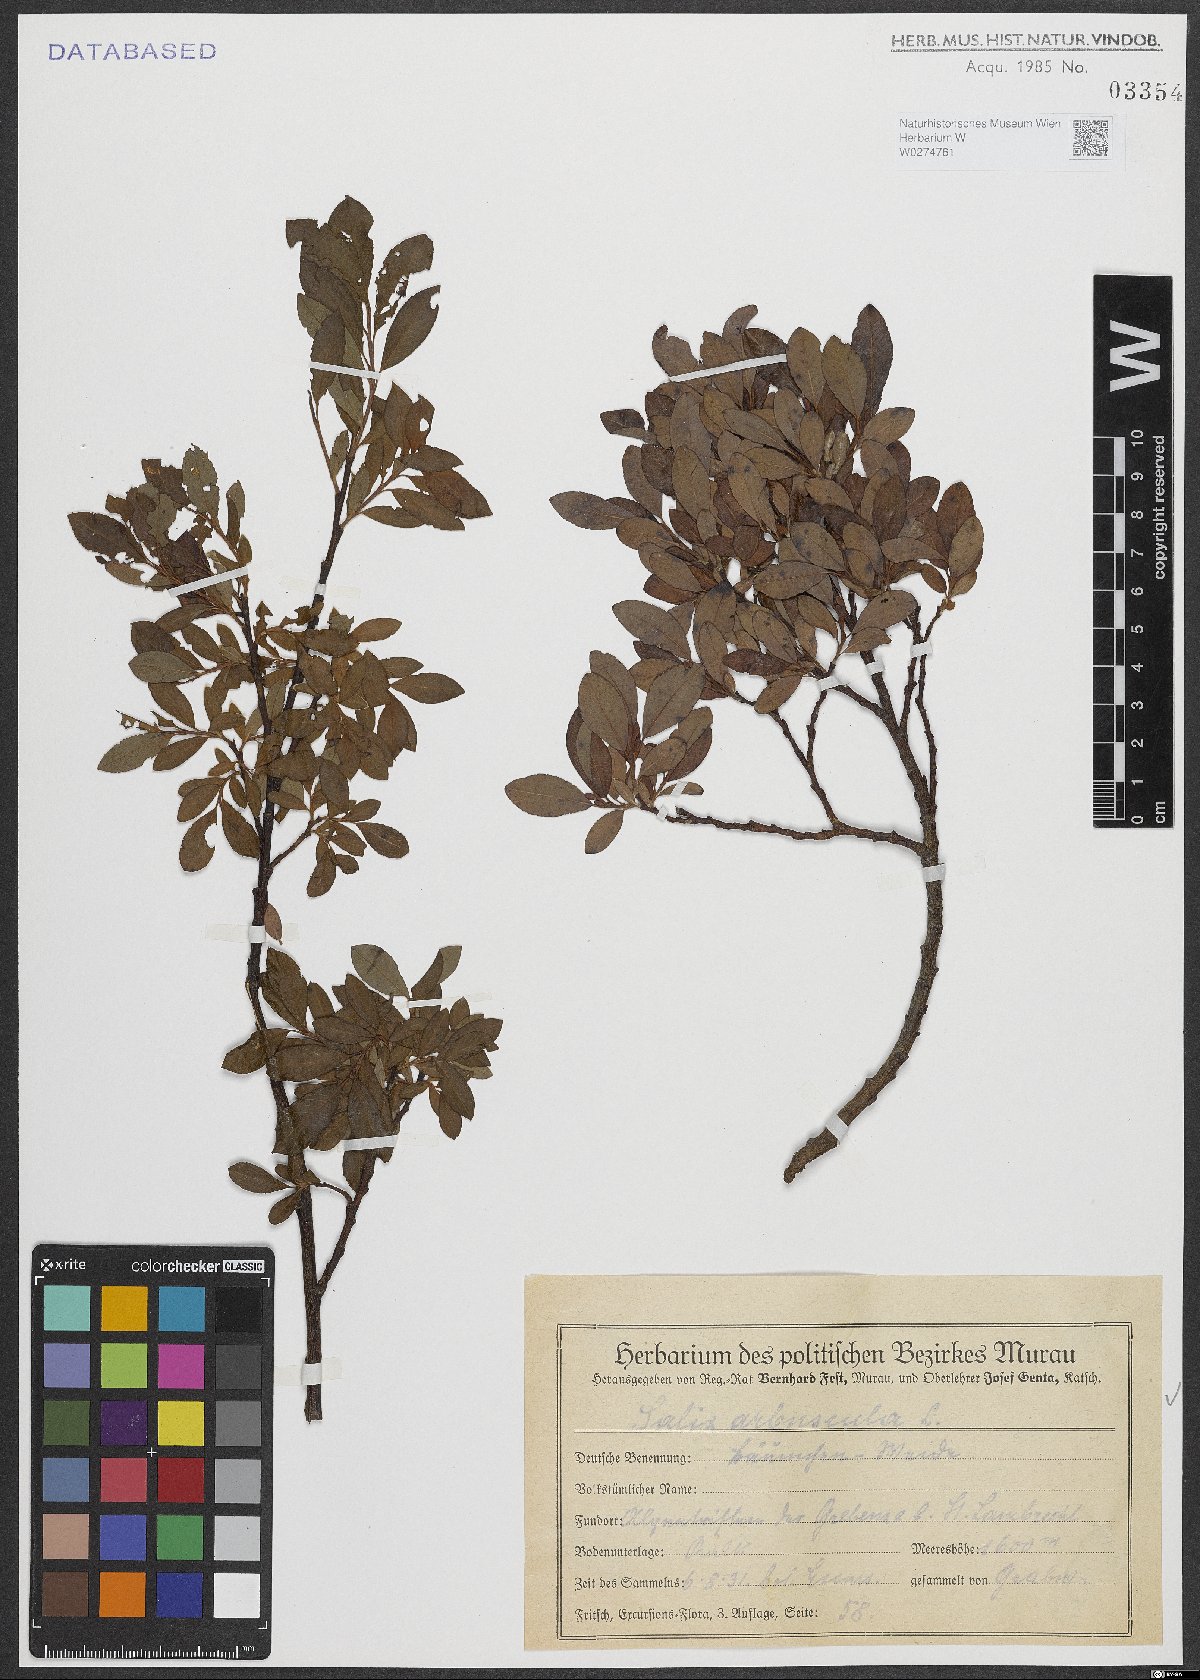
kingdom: Plantae
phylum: Tracheophyta
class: Magnoliopsida
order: Malpighiales
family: Salicaceae
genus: Salix
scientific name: Salix arbuscula
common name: Mountain willow
